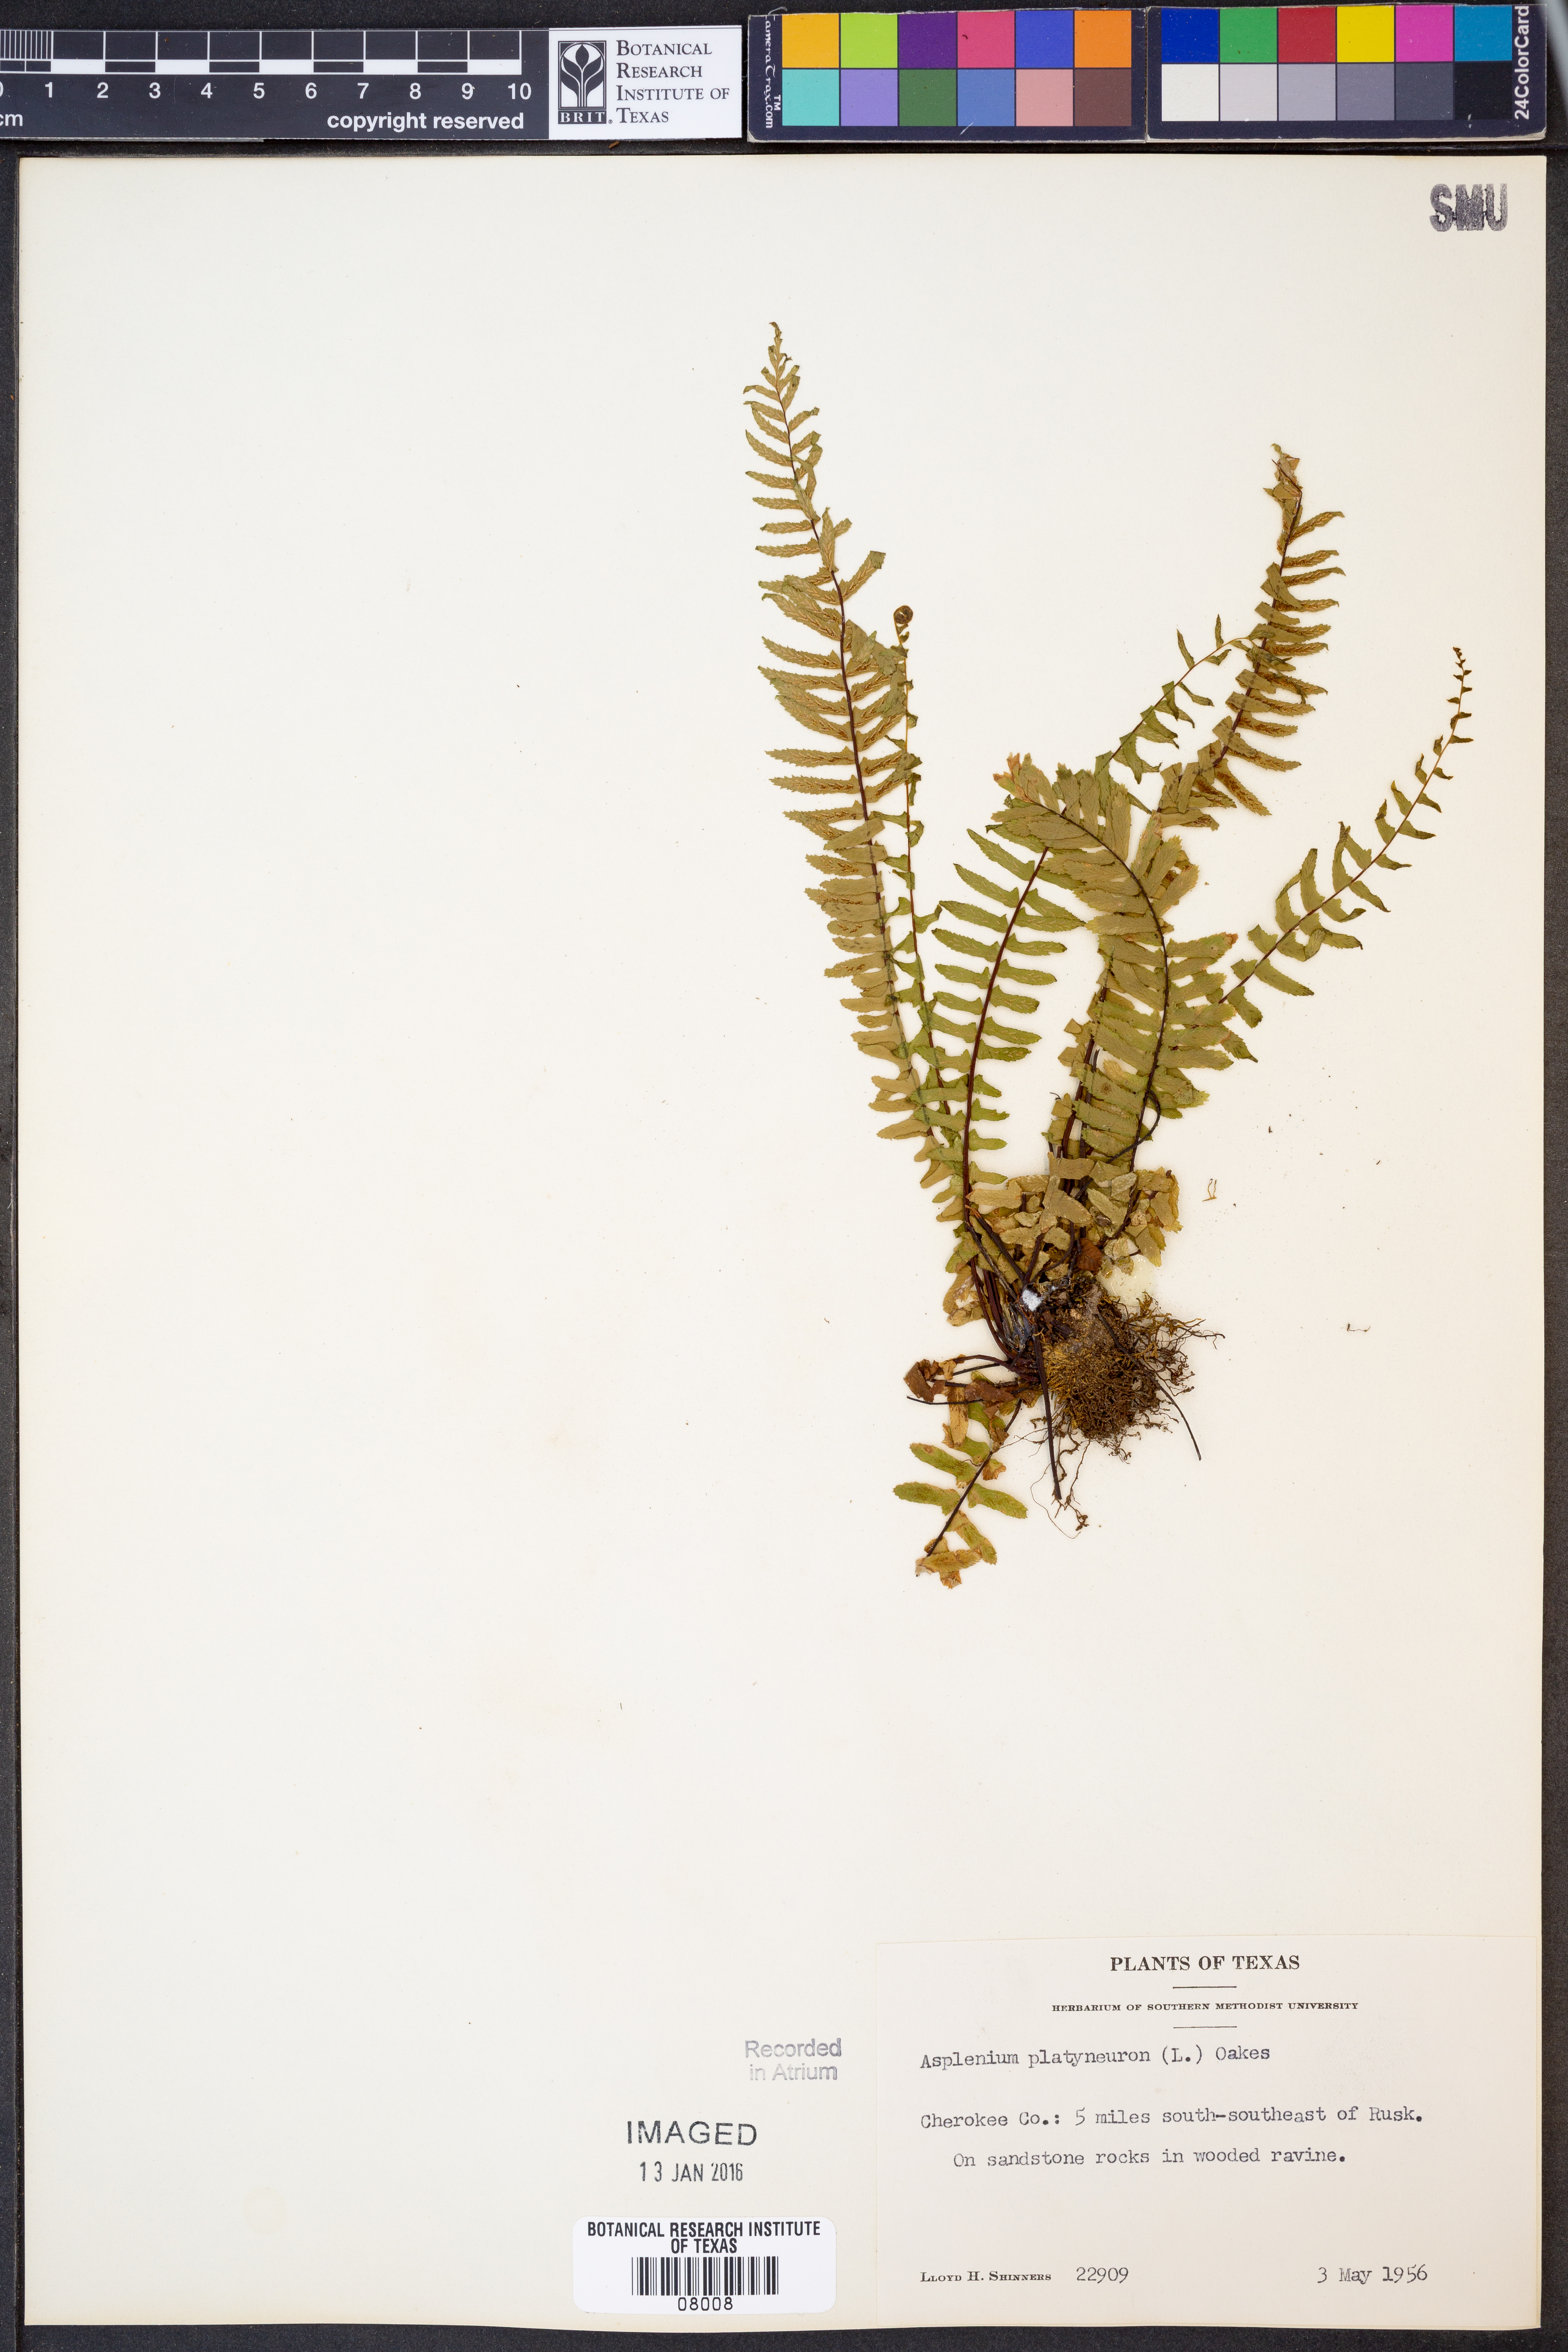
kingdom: Plantae
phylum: Tracheophyta
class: Polypodiopsida
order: Polypodiales
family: Aspleniaceae
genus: Asplenium
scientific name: Asplenium platyneuron
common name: Ebony spleenwort
